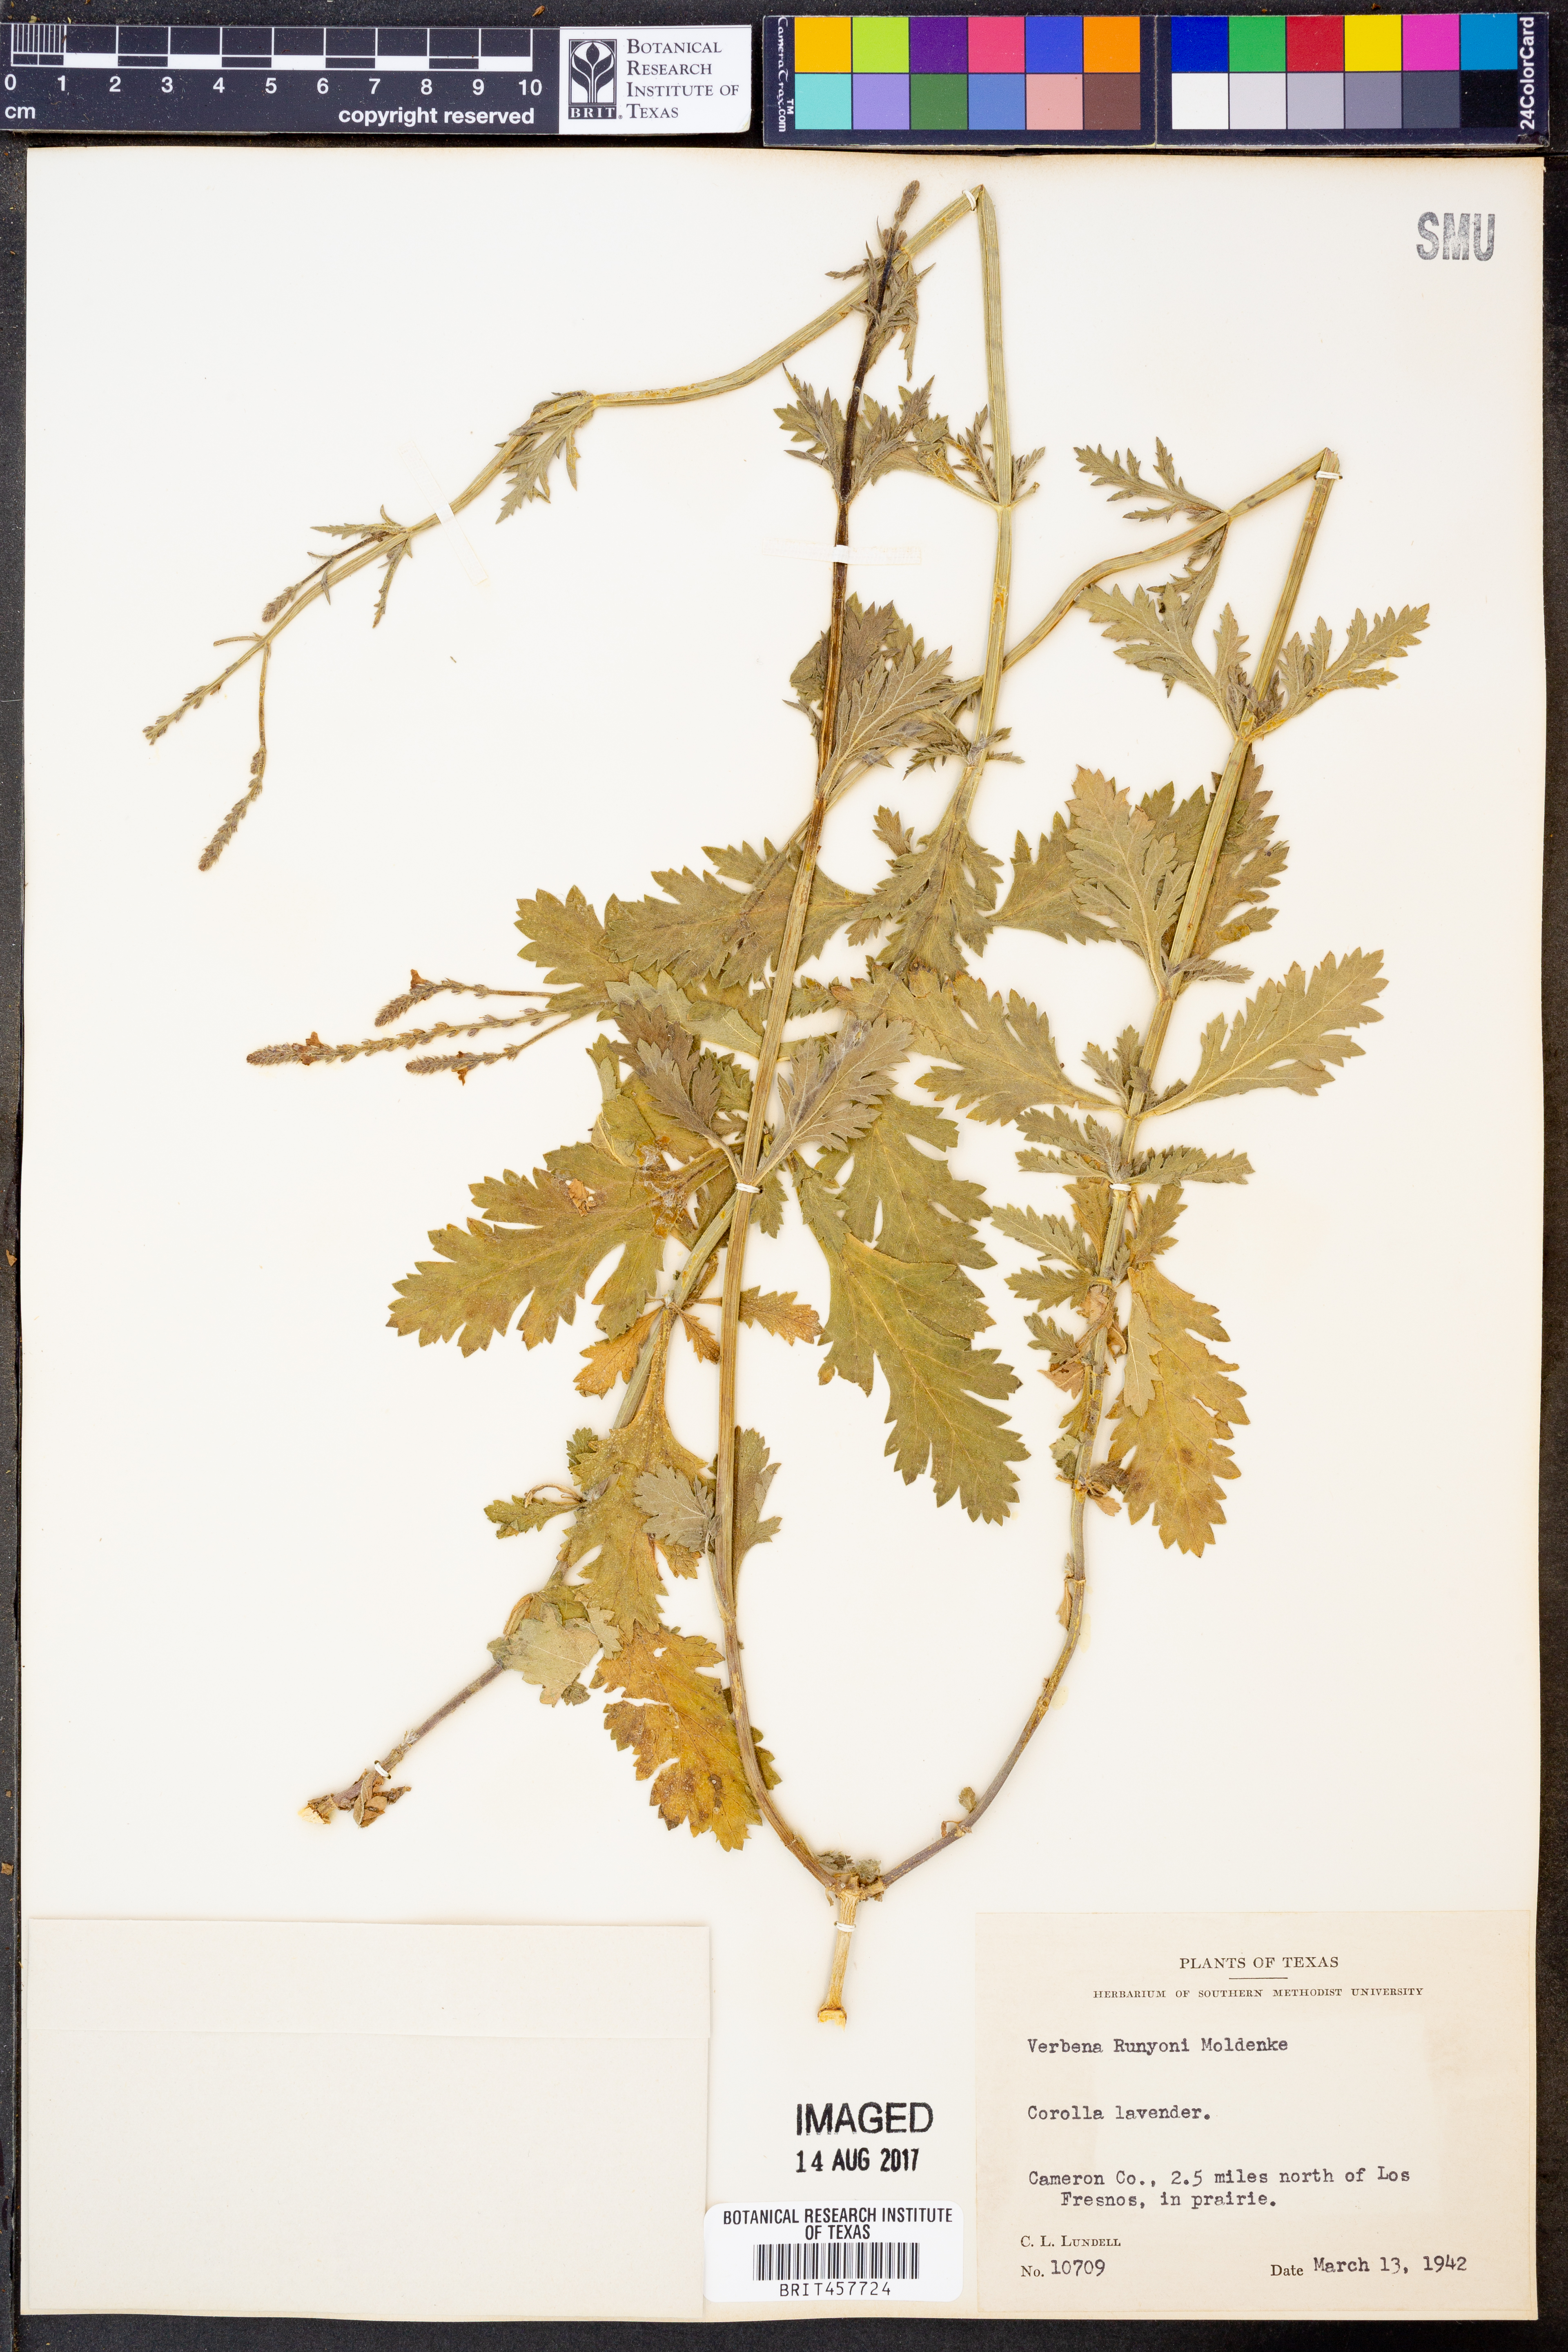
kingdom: Plantae
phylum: Tracheophyta
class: Magnoliopsida
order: Lamiales
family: Verbenaceae
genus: Verbena
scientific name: Verbena neomexicana
